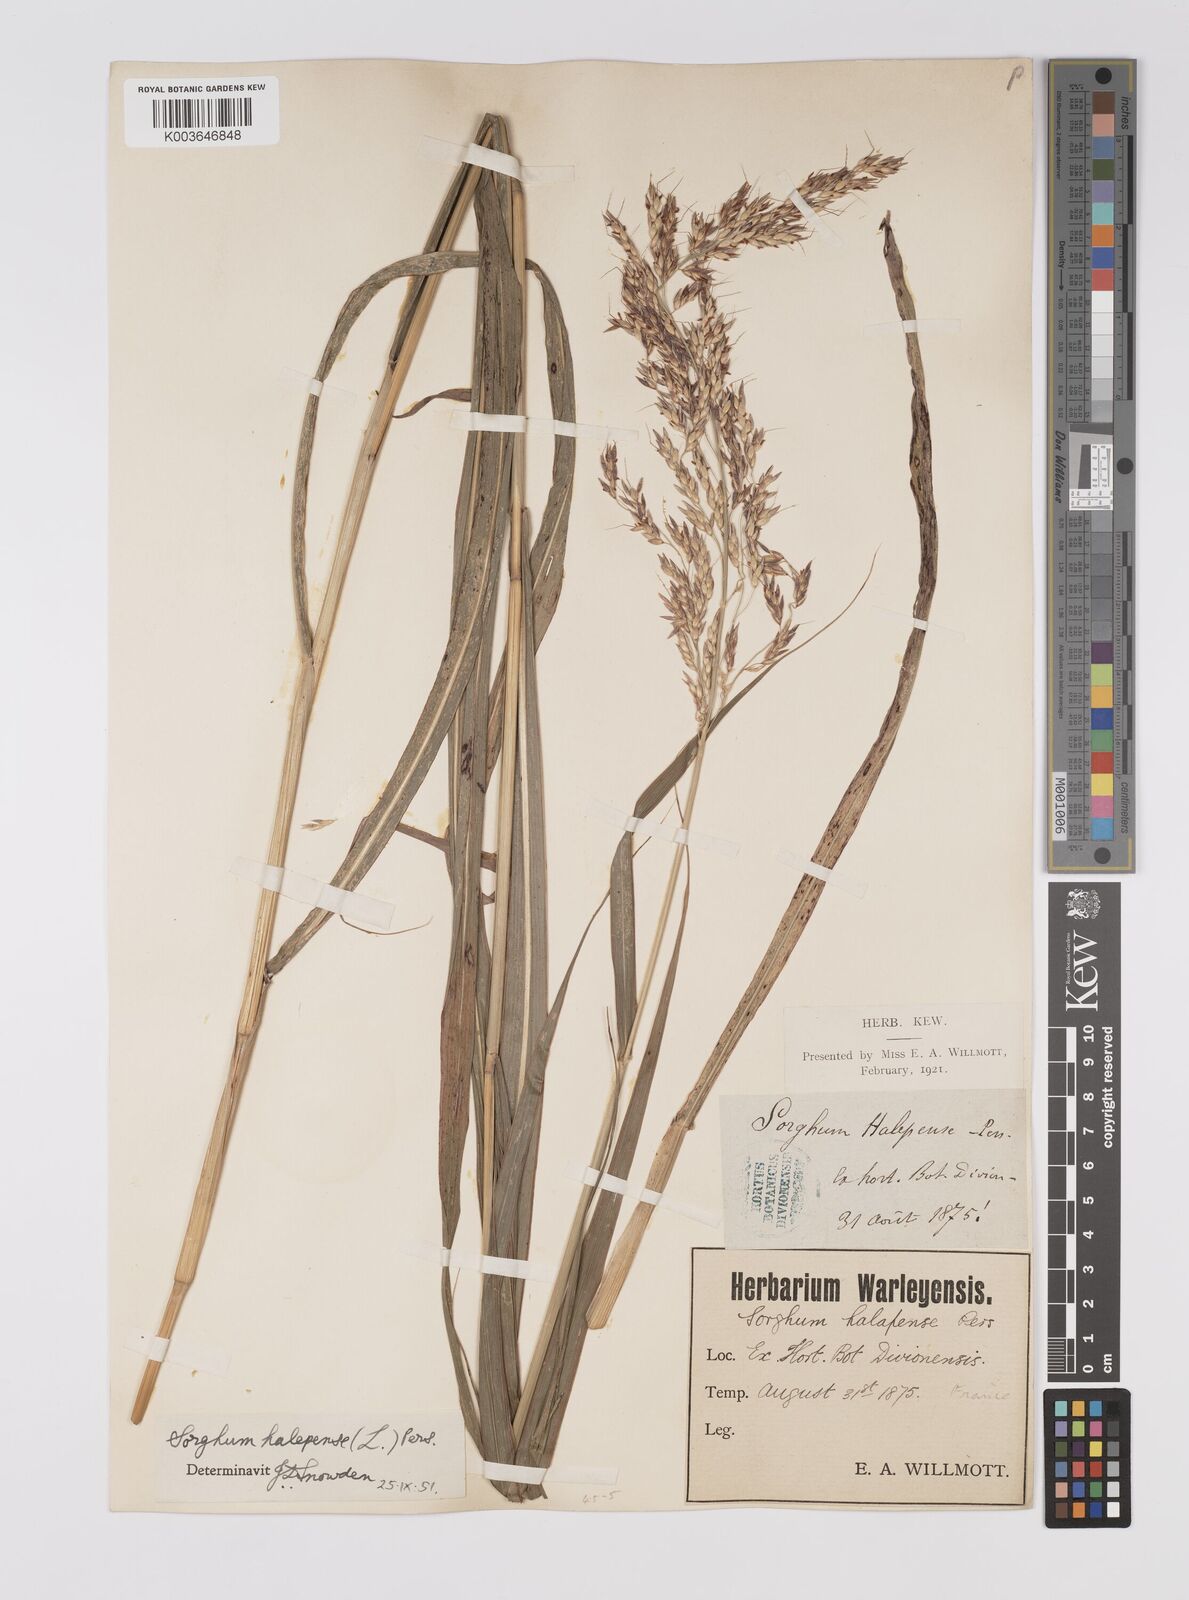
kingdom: Plantae
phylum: Tracheophyta
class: Liliopsida
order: Poales
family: Poaceae
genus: Sorghum
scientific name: Sorghum halepense
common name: Johnson-grass
